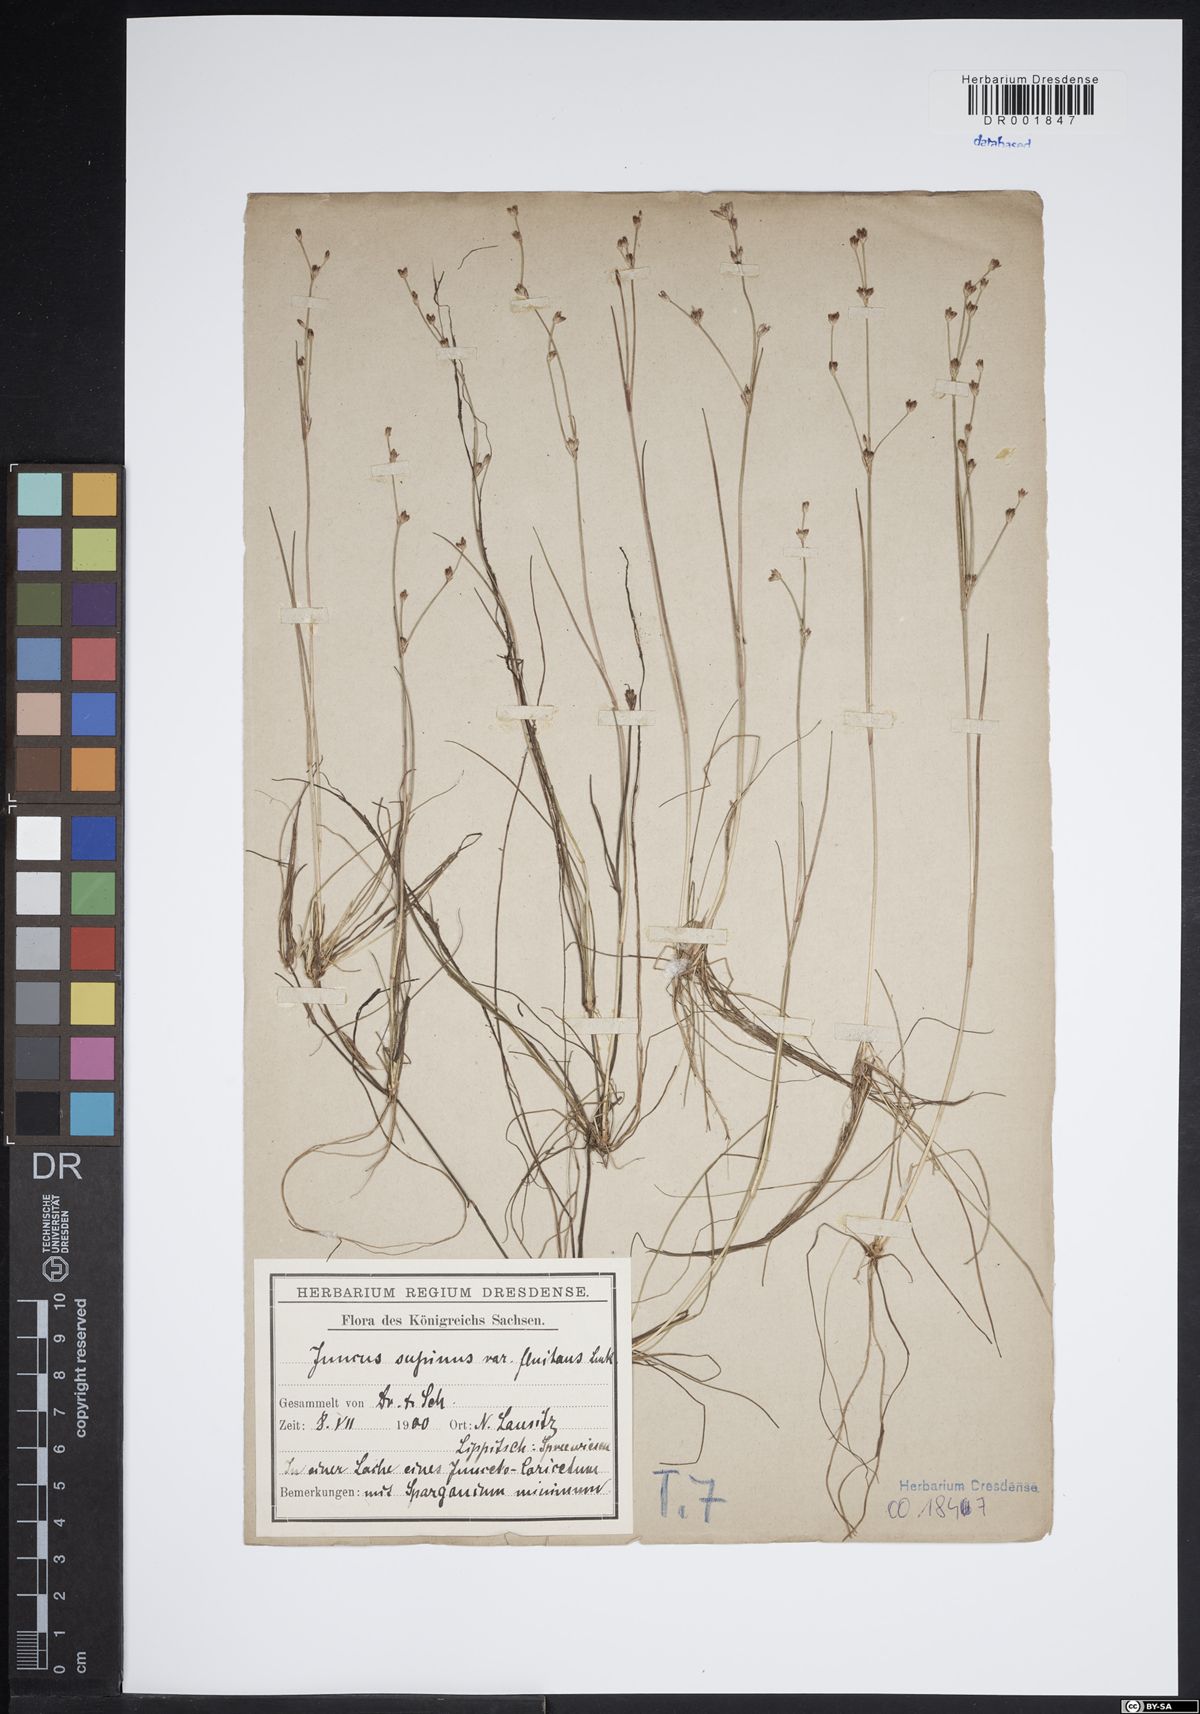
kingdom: Plantae
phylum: Tracheophyta
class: Liliopsida
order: Poales
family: Juncaceae
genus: Juncus
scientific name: Juncus bulbosus
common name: Bulbous rush
